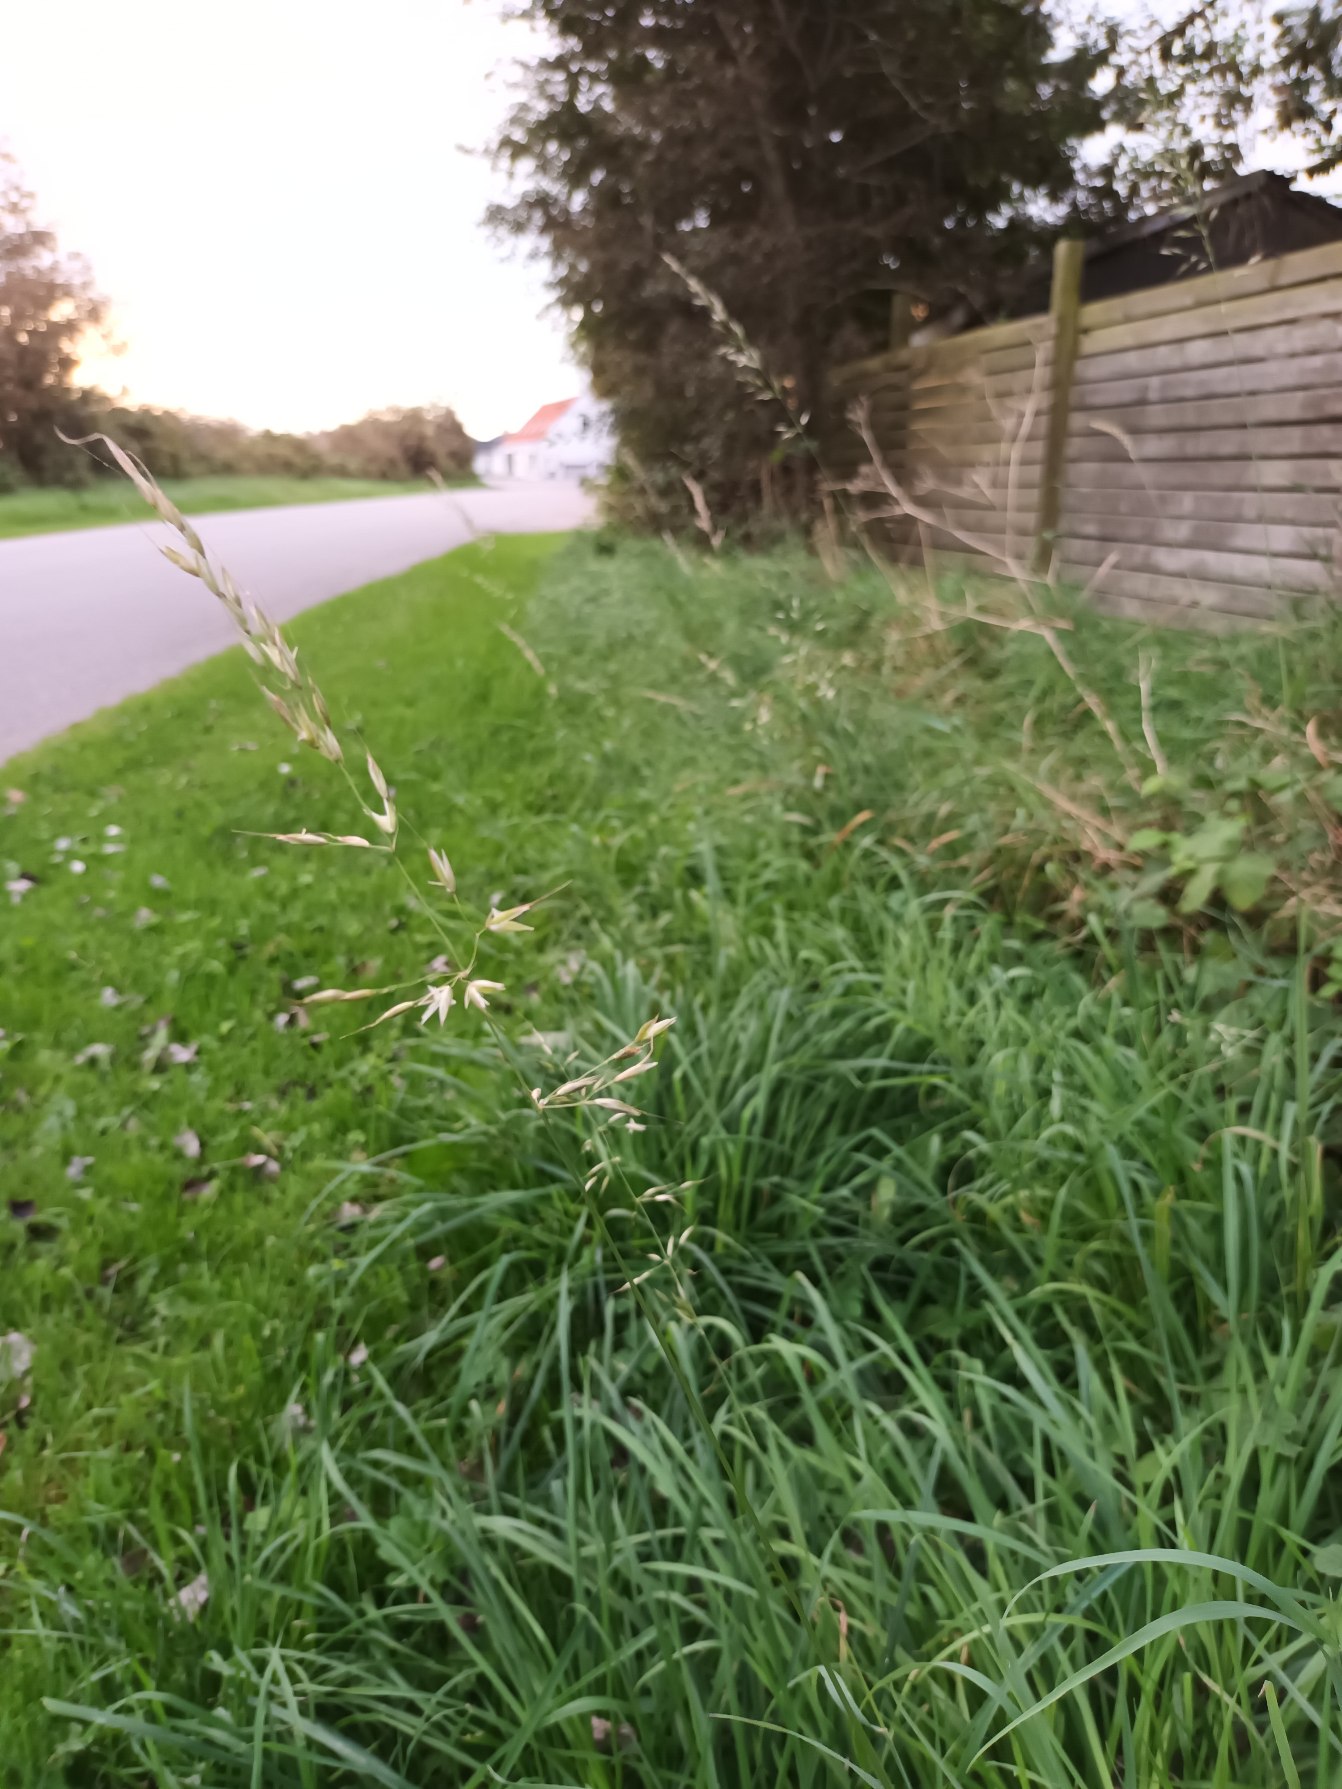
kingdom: Plantae
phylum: Tracheophyta
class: Liliopsida
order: Poales
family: Poaceae
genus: Arrhenatherum
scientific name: Arrhenatherum elatius
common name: Draphavre
